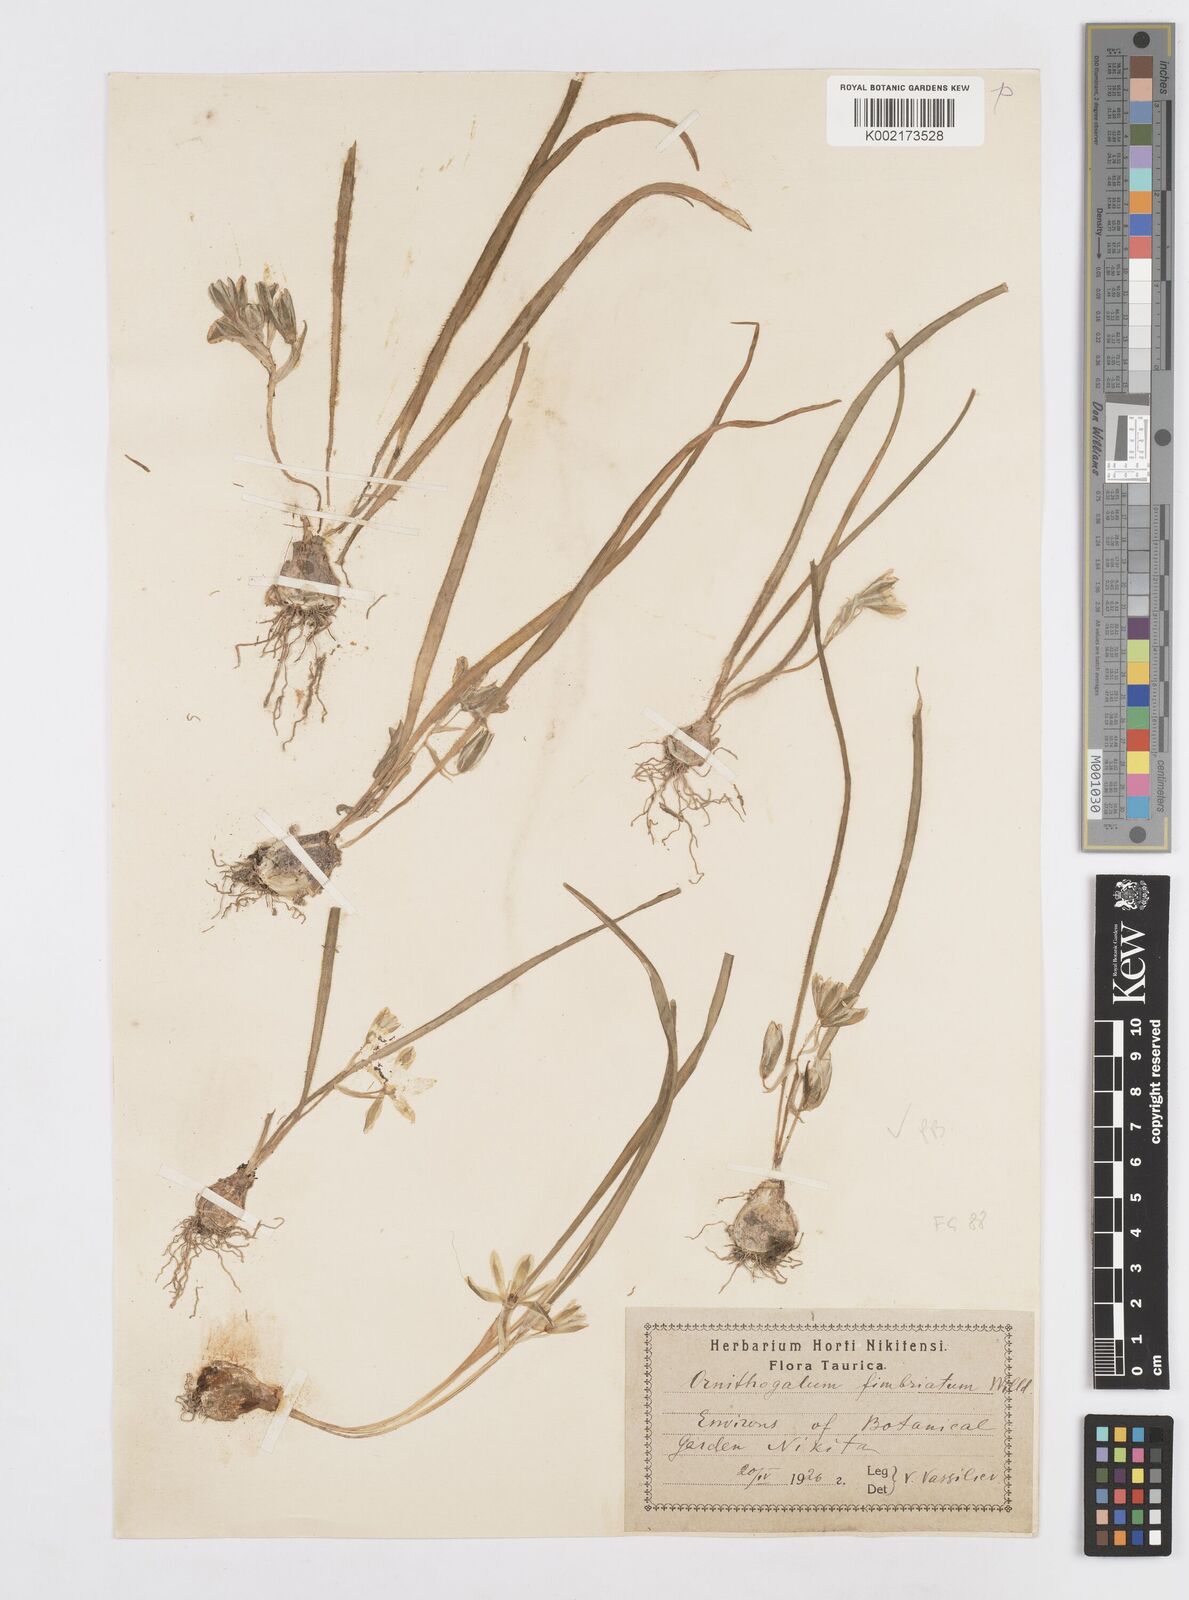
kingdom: Plantae
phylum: Tracheophyta
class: Liliopsida
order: Asparagales
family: Asparagaceae
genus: Ornithogalum
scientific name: Ornithogalum fimbriatum
